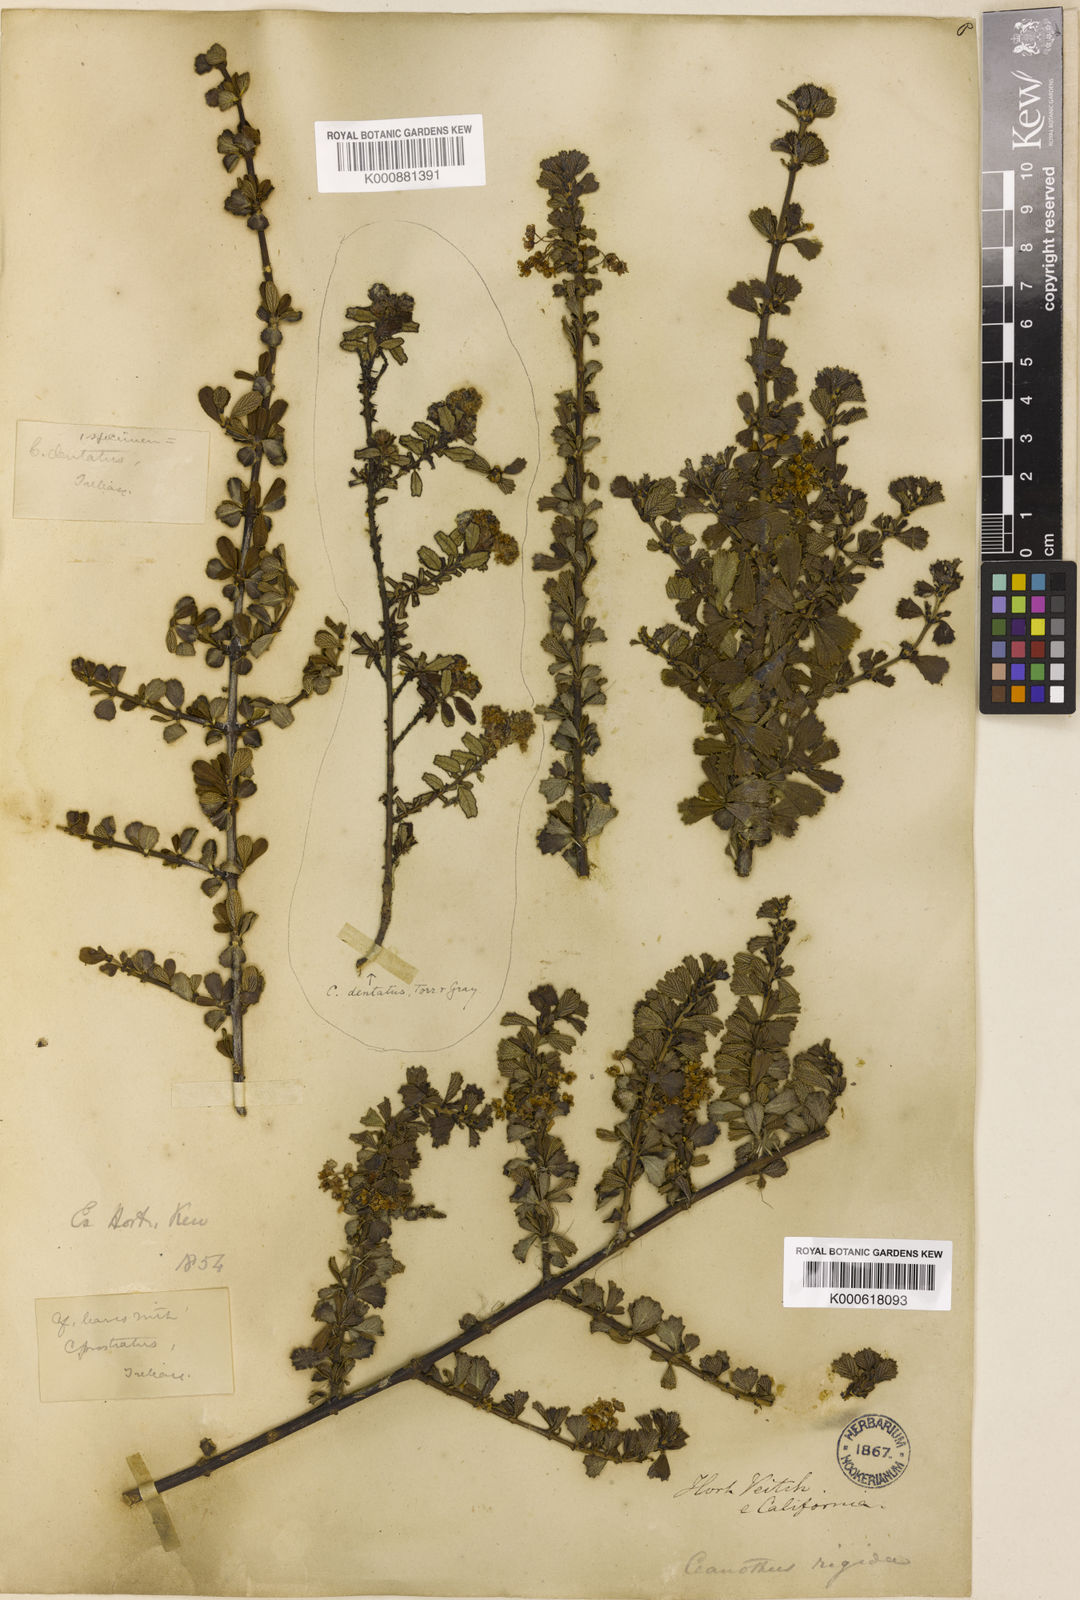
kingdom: Plantae
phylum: Tracheophyta
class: Magnoliopsida
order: Rosales
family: Rhamnaceae
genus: Ceanothus
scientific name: Ceanothus cuneatus
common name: Cuneate ceanothus
